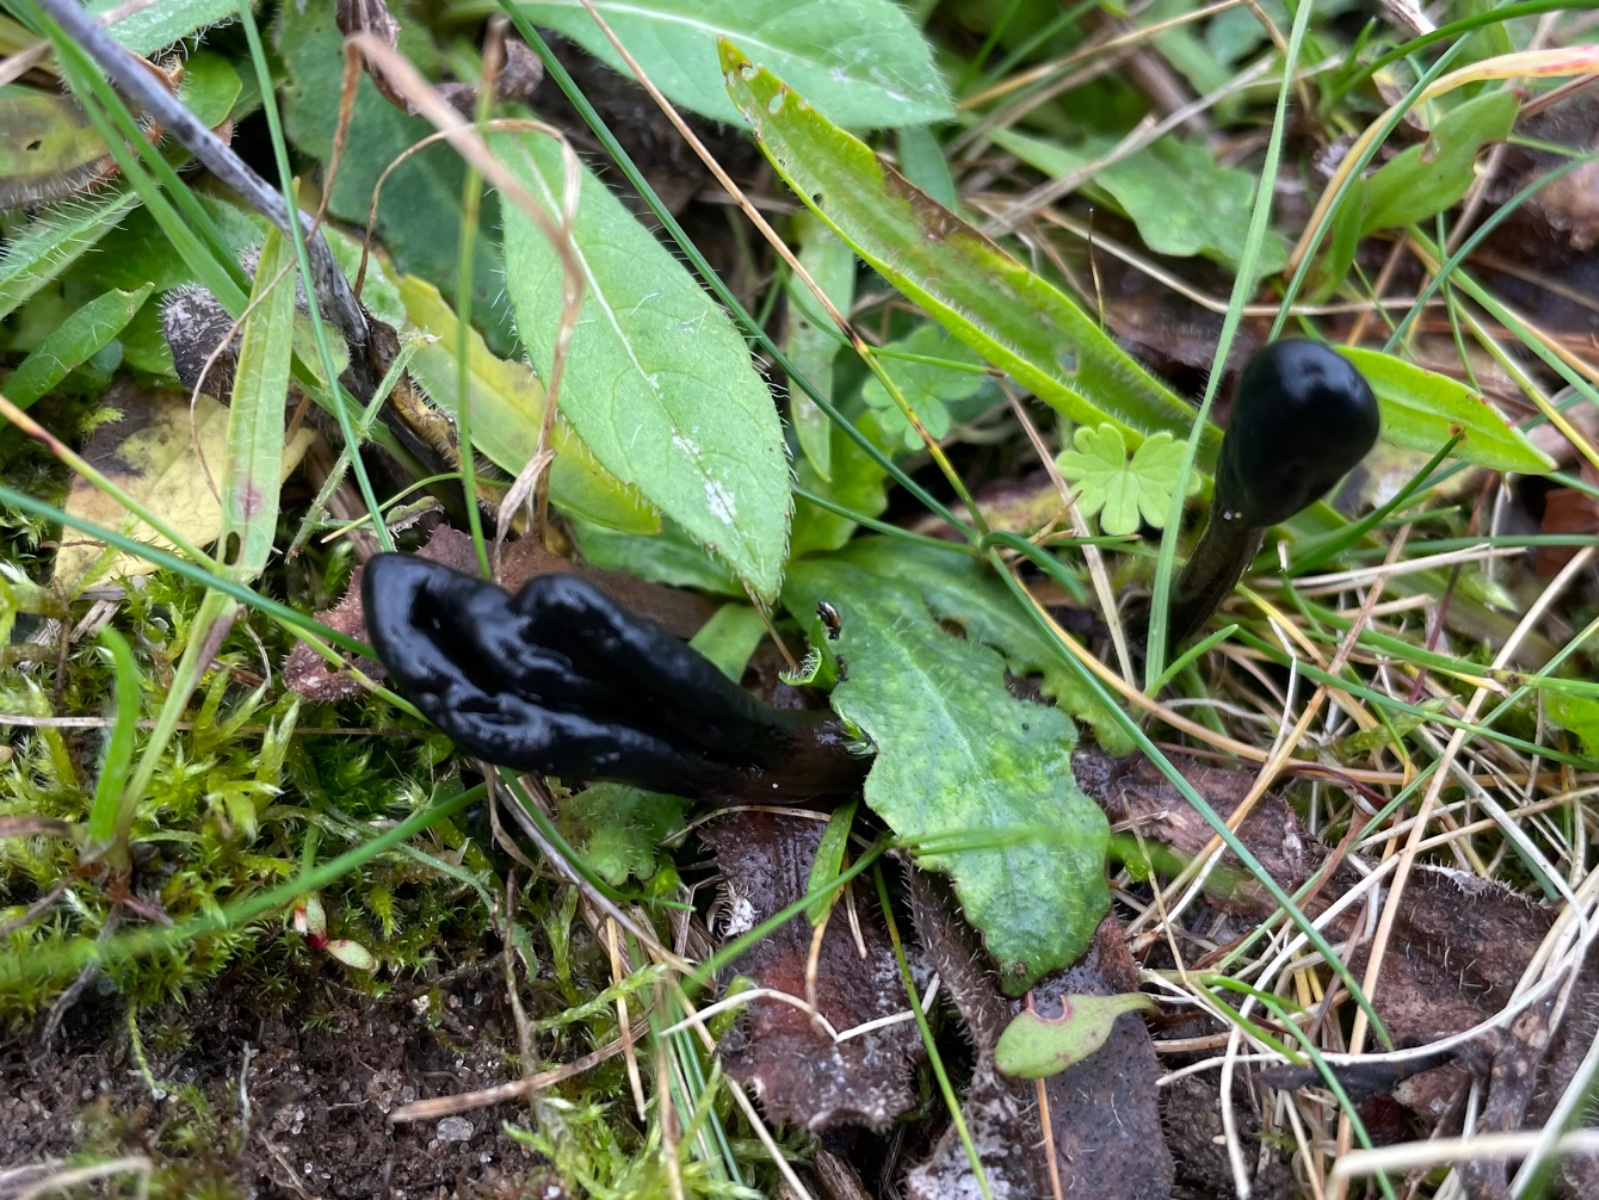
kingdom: Fungi
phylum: Ascomycota
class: Geoglossomycetes
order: Geoglossales
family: Geoglossaceae
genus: Glutinoglossum
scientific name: Glutinoglossum glutinosum
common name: slimet jordtunge
